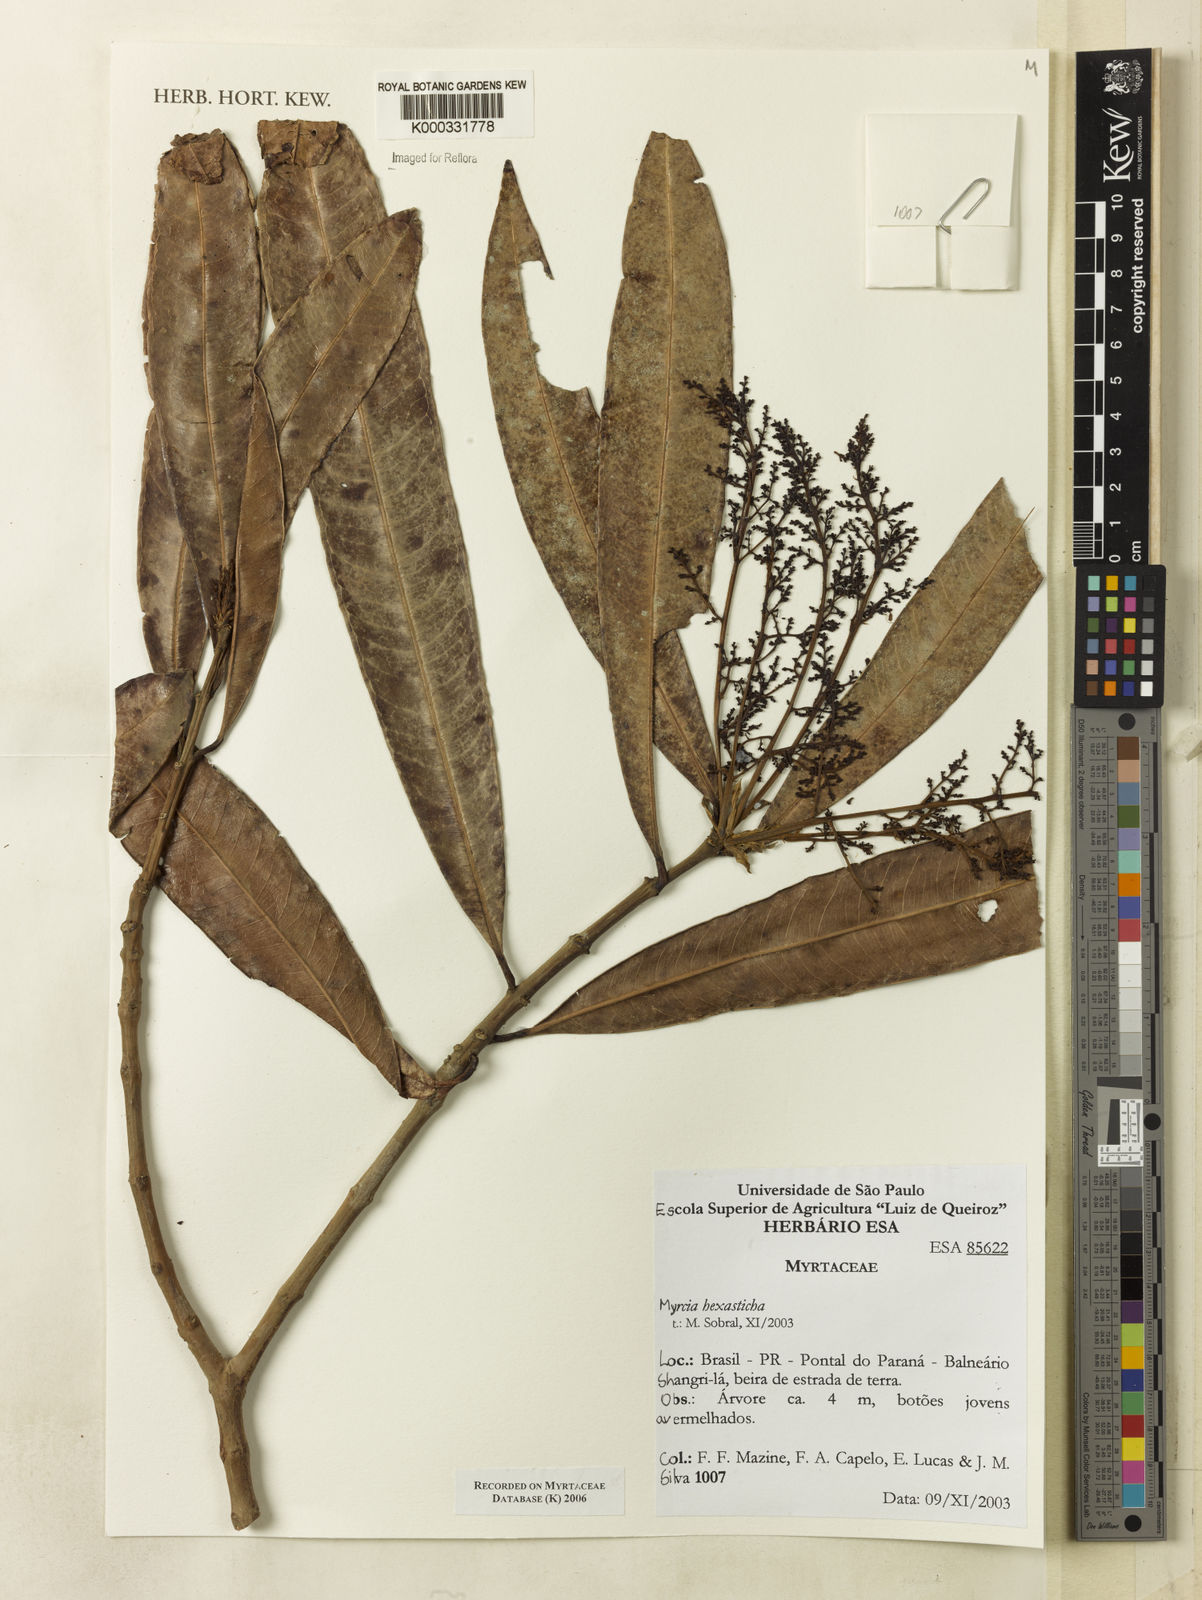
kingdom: Plantae
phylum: Tracheophyta
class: Magnoliopsida
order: Myrtales
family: Myrtaceae
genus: Myrcia
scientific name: Myrcia hexasticha
